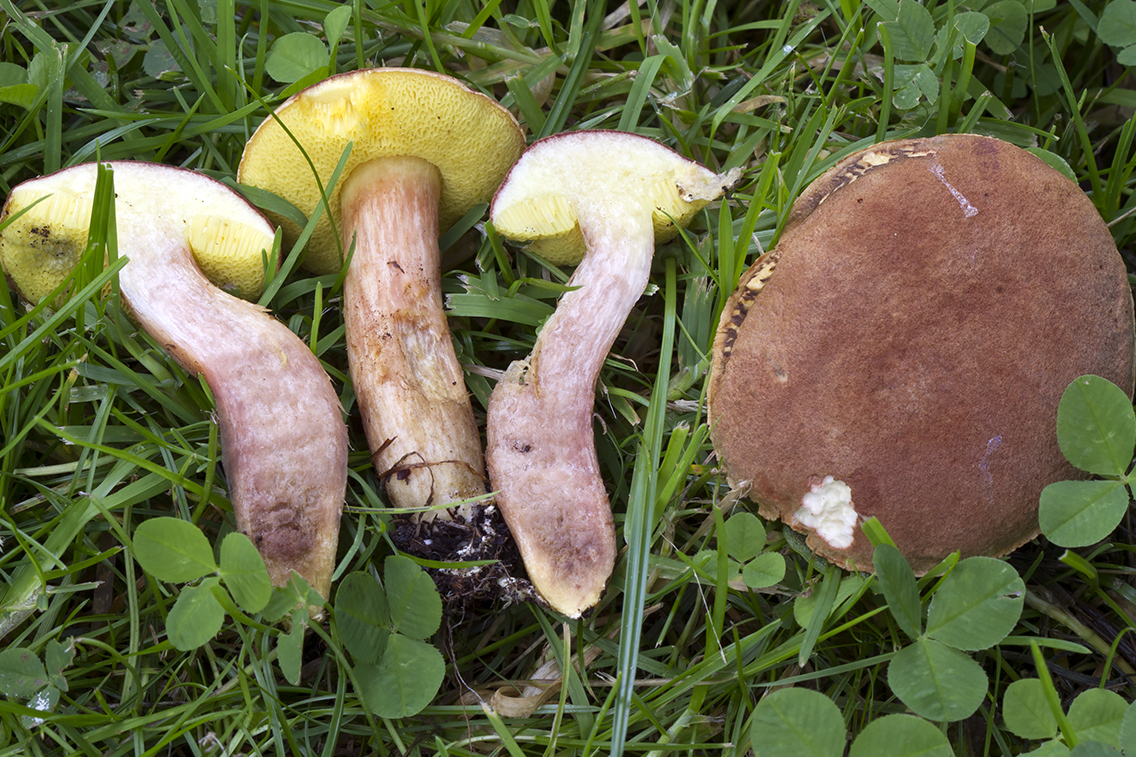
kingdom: Fungi
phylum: Basidiomycota
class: Agaricomycetes
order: Boletales
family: Boletaceae
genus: Xerocomus
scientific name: Xerocomus subtomentosus
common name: filtet rørhat
